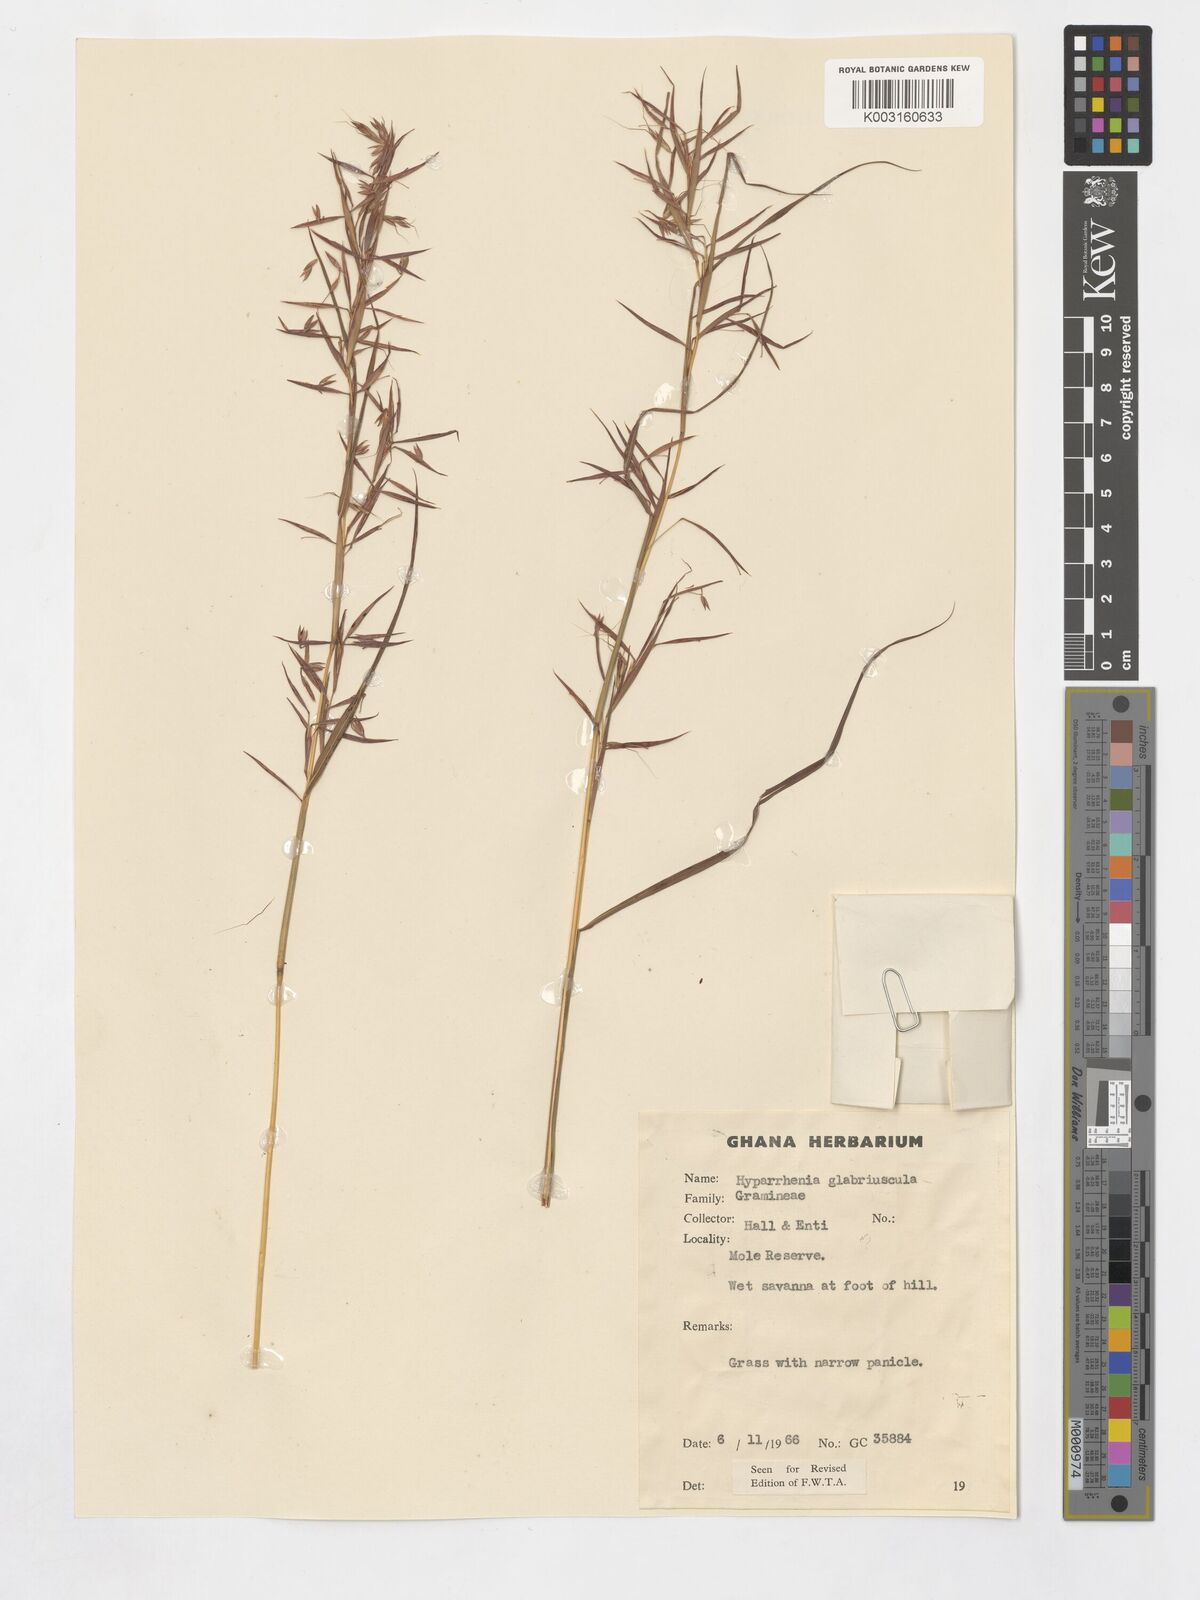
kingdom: Plantae
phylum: Tracheophyta
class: Liliopsida
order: Poales
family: Poaceae
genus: Hyparrhenia
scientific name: Hyparrhenia glabriuscula
